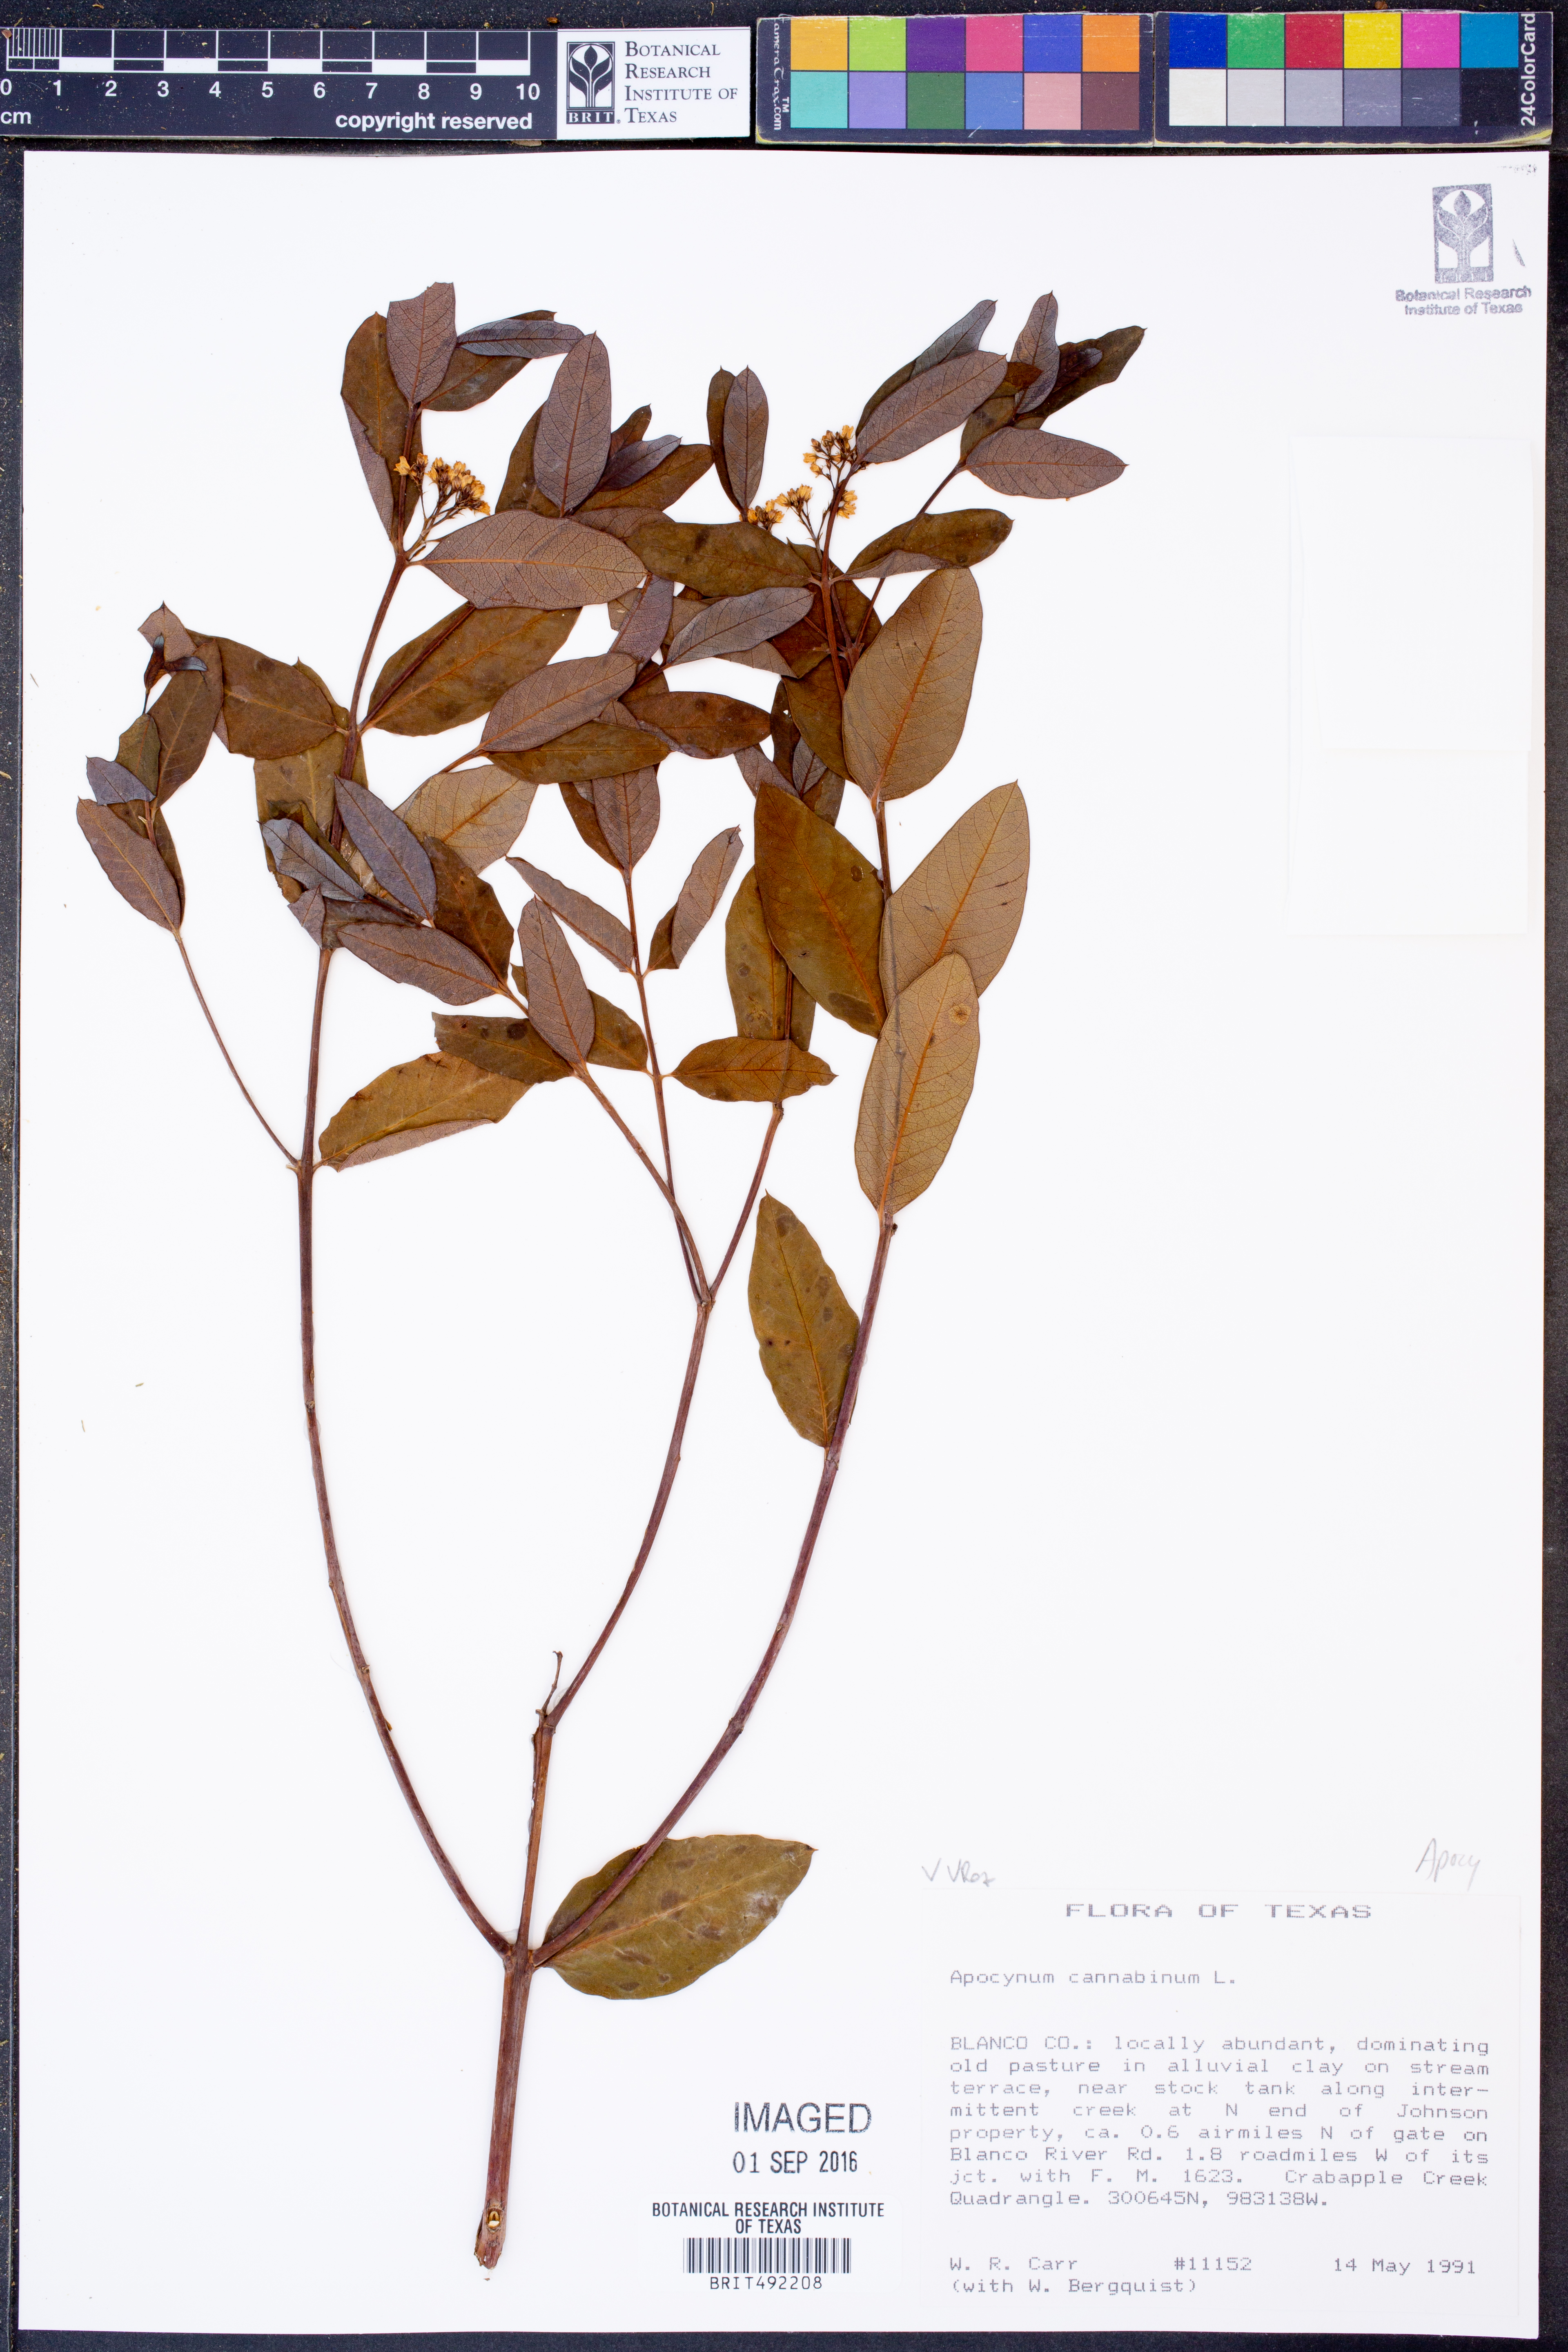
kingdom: Plantae
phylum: Tracheophyta
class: Magnoliopsida
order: Gentianales
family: Apocynaceae
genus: Apocynum
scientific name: Apocynum cannabinum
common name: Hemp dogbane
